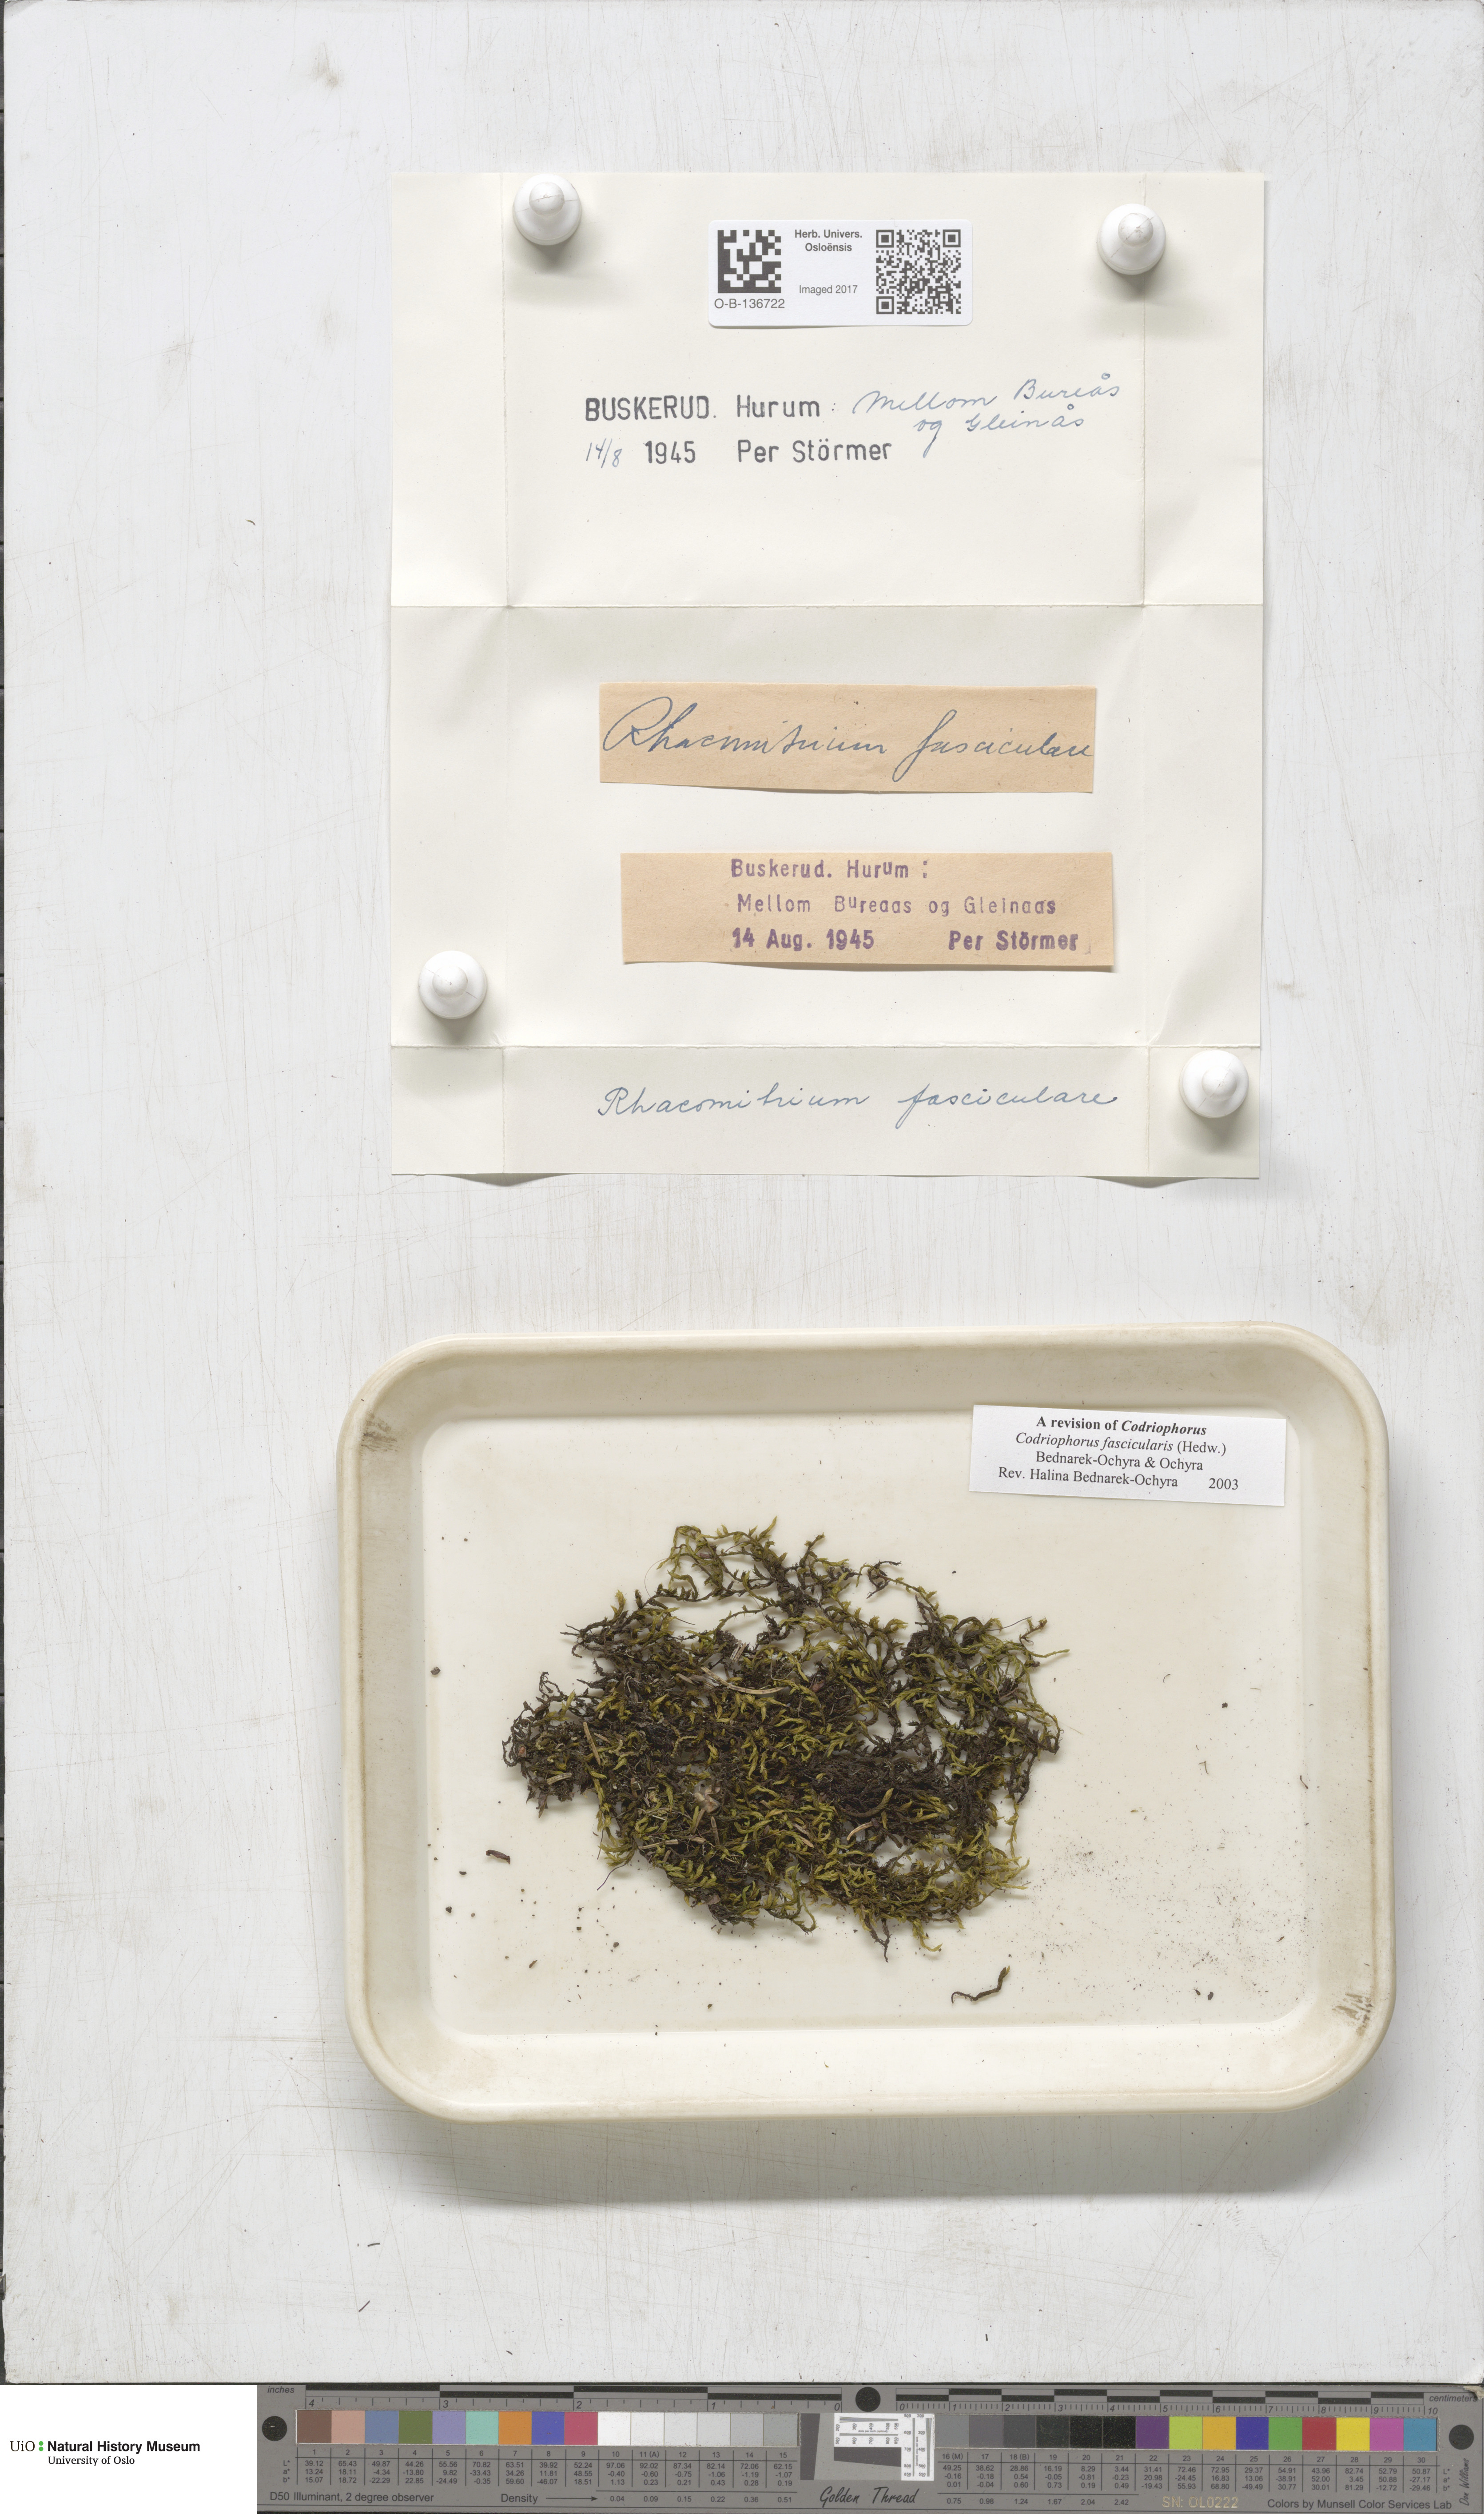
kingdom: Plantae
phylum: Bryophyta
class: Bryopsida
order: Grimmiales
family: Grimmiaceae
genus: Dilutineuron
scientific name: Dilutineuron fasciculare
